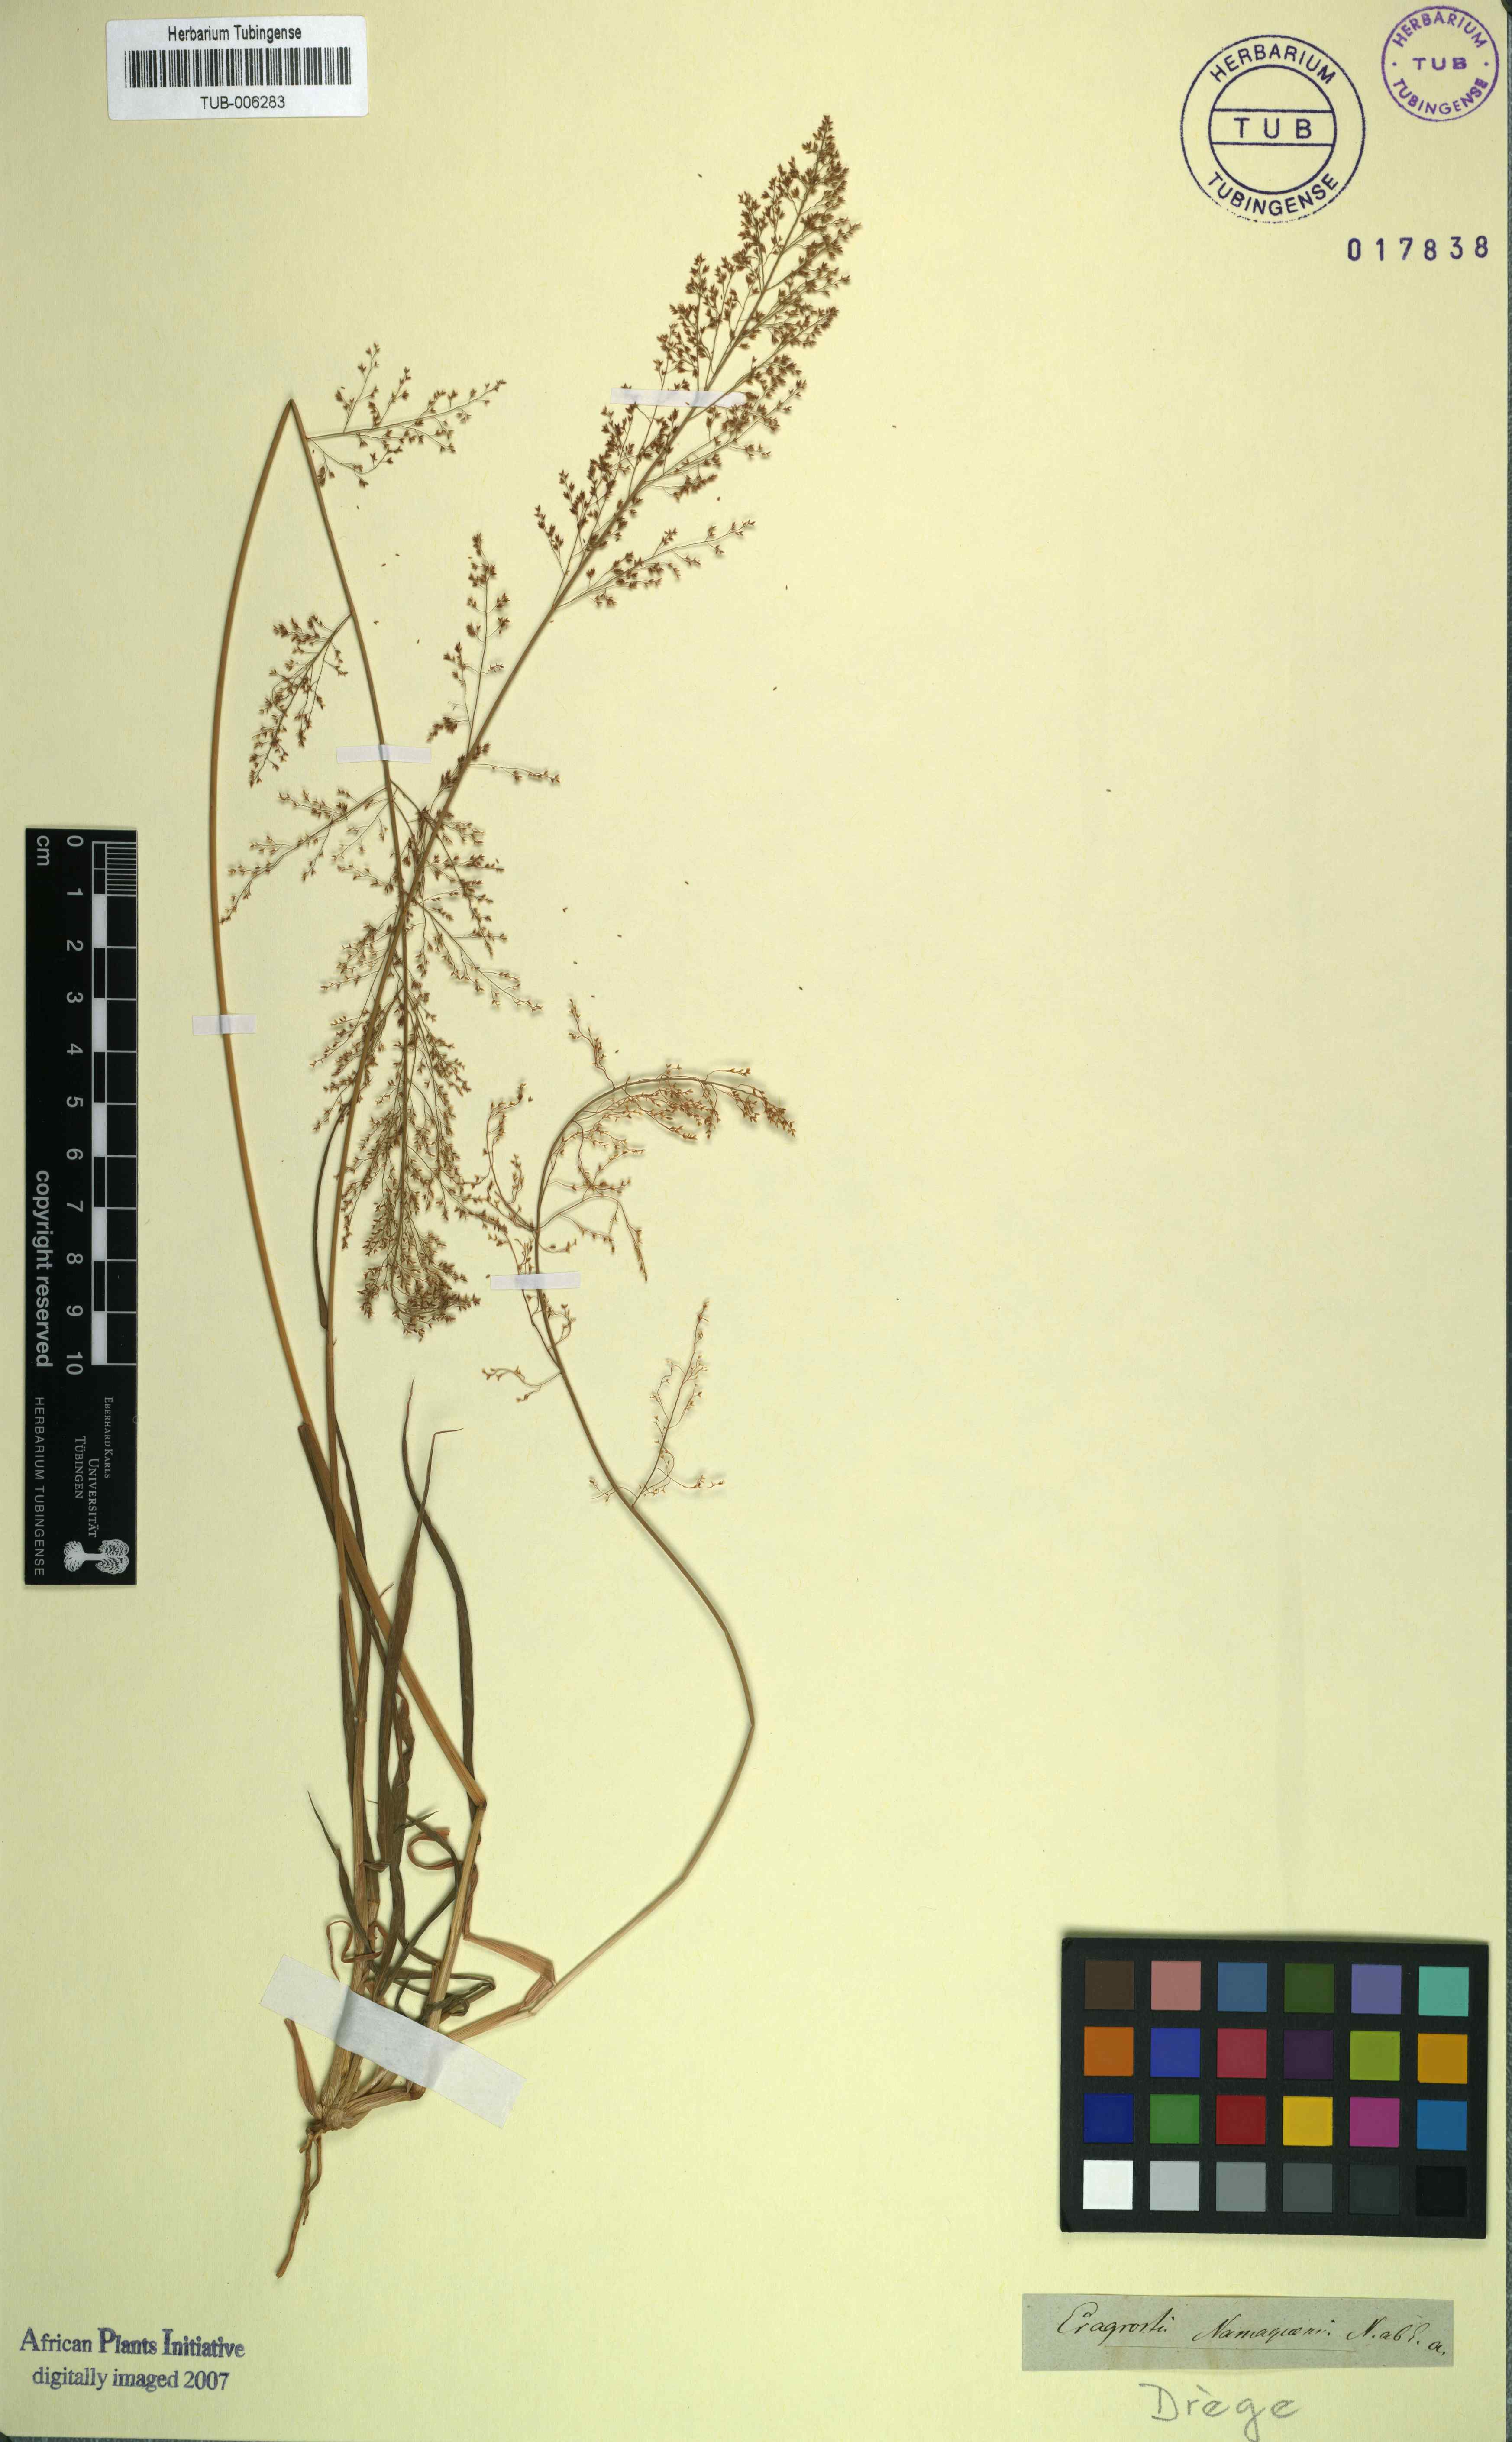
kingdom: Plantae
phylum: Tracheophyta
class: Liliopsida
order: Poales
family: Poaceae
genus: Eragrostis
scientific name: Eragrostis interrupta
